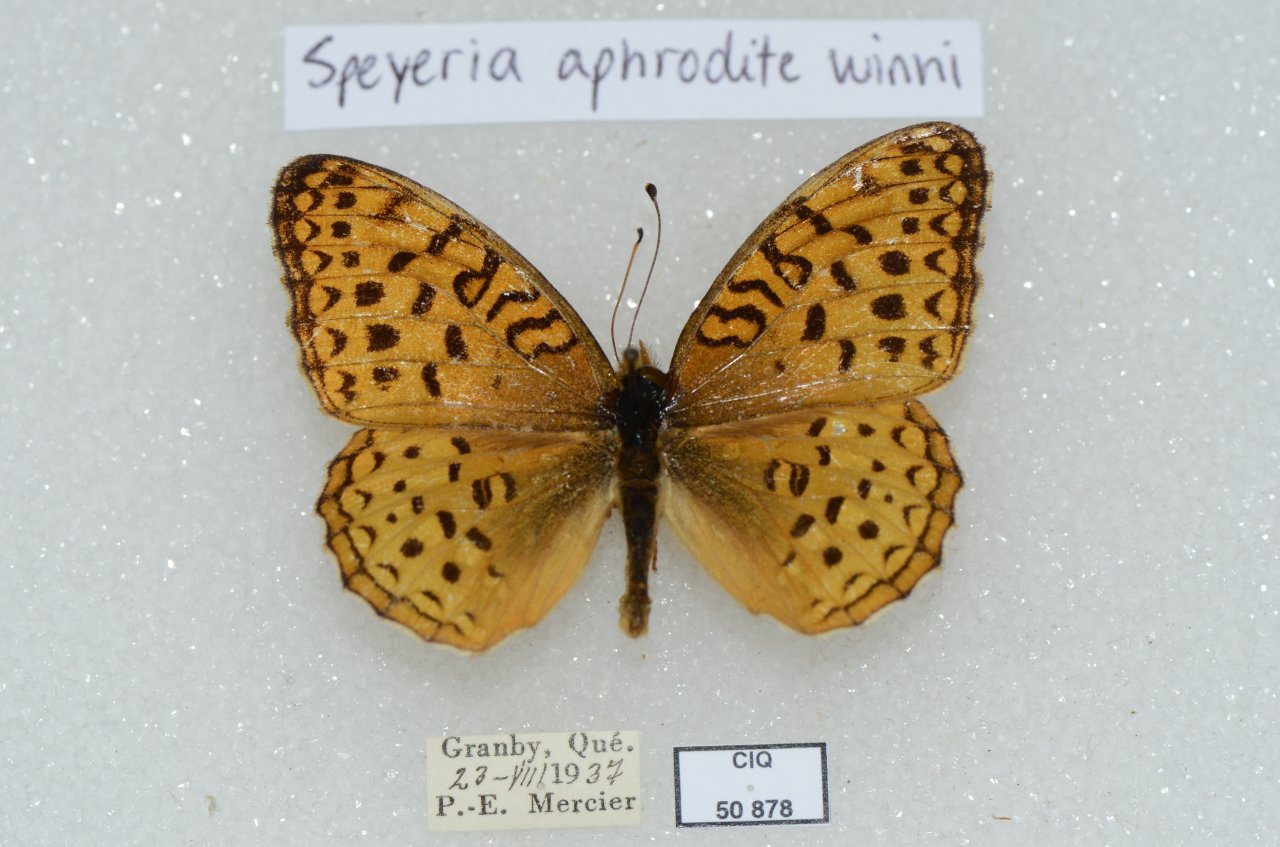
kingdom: Animalia
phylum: Arthropoda
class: Insecta
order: Lepidoptera
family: Nymphalidae
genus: Speyeria
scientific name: Speyeria aphrodite
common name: Aphrodite Fritillary
